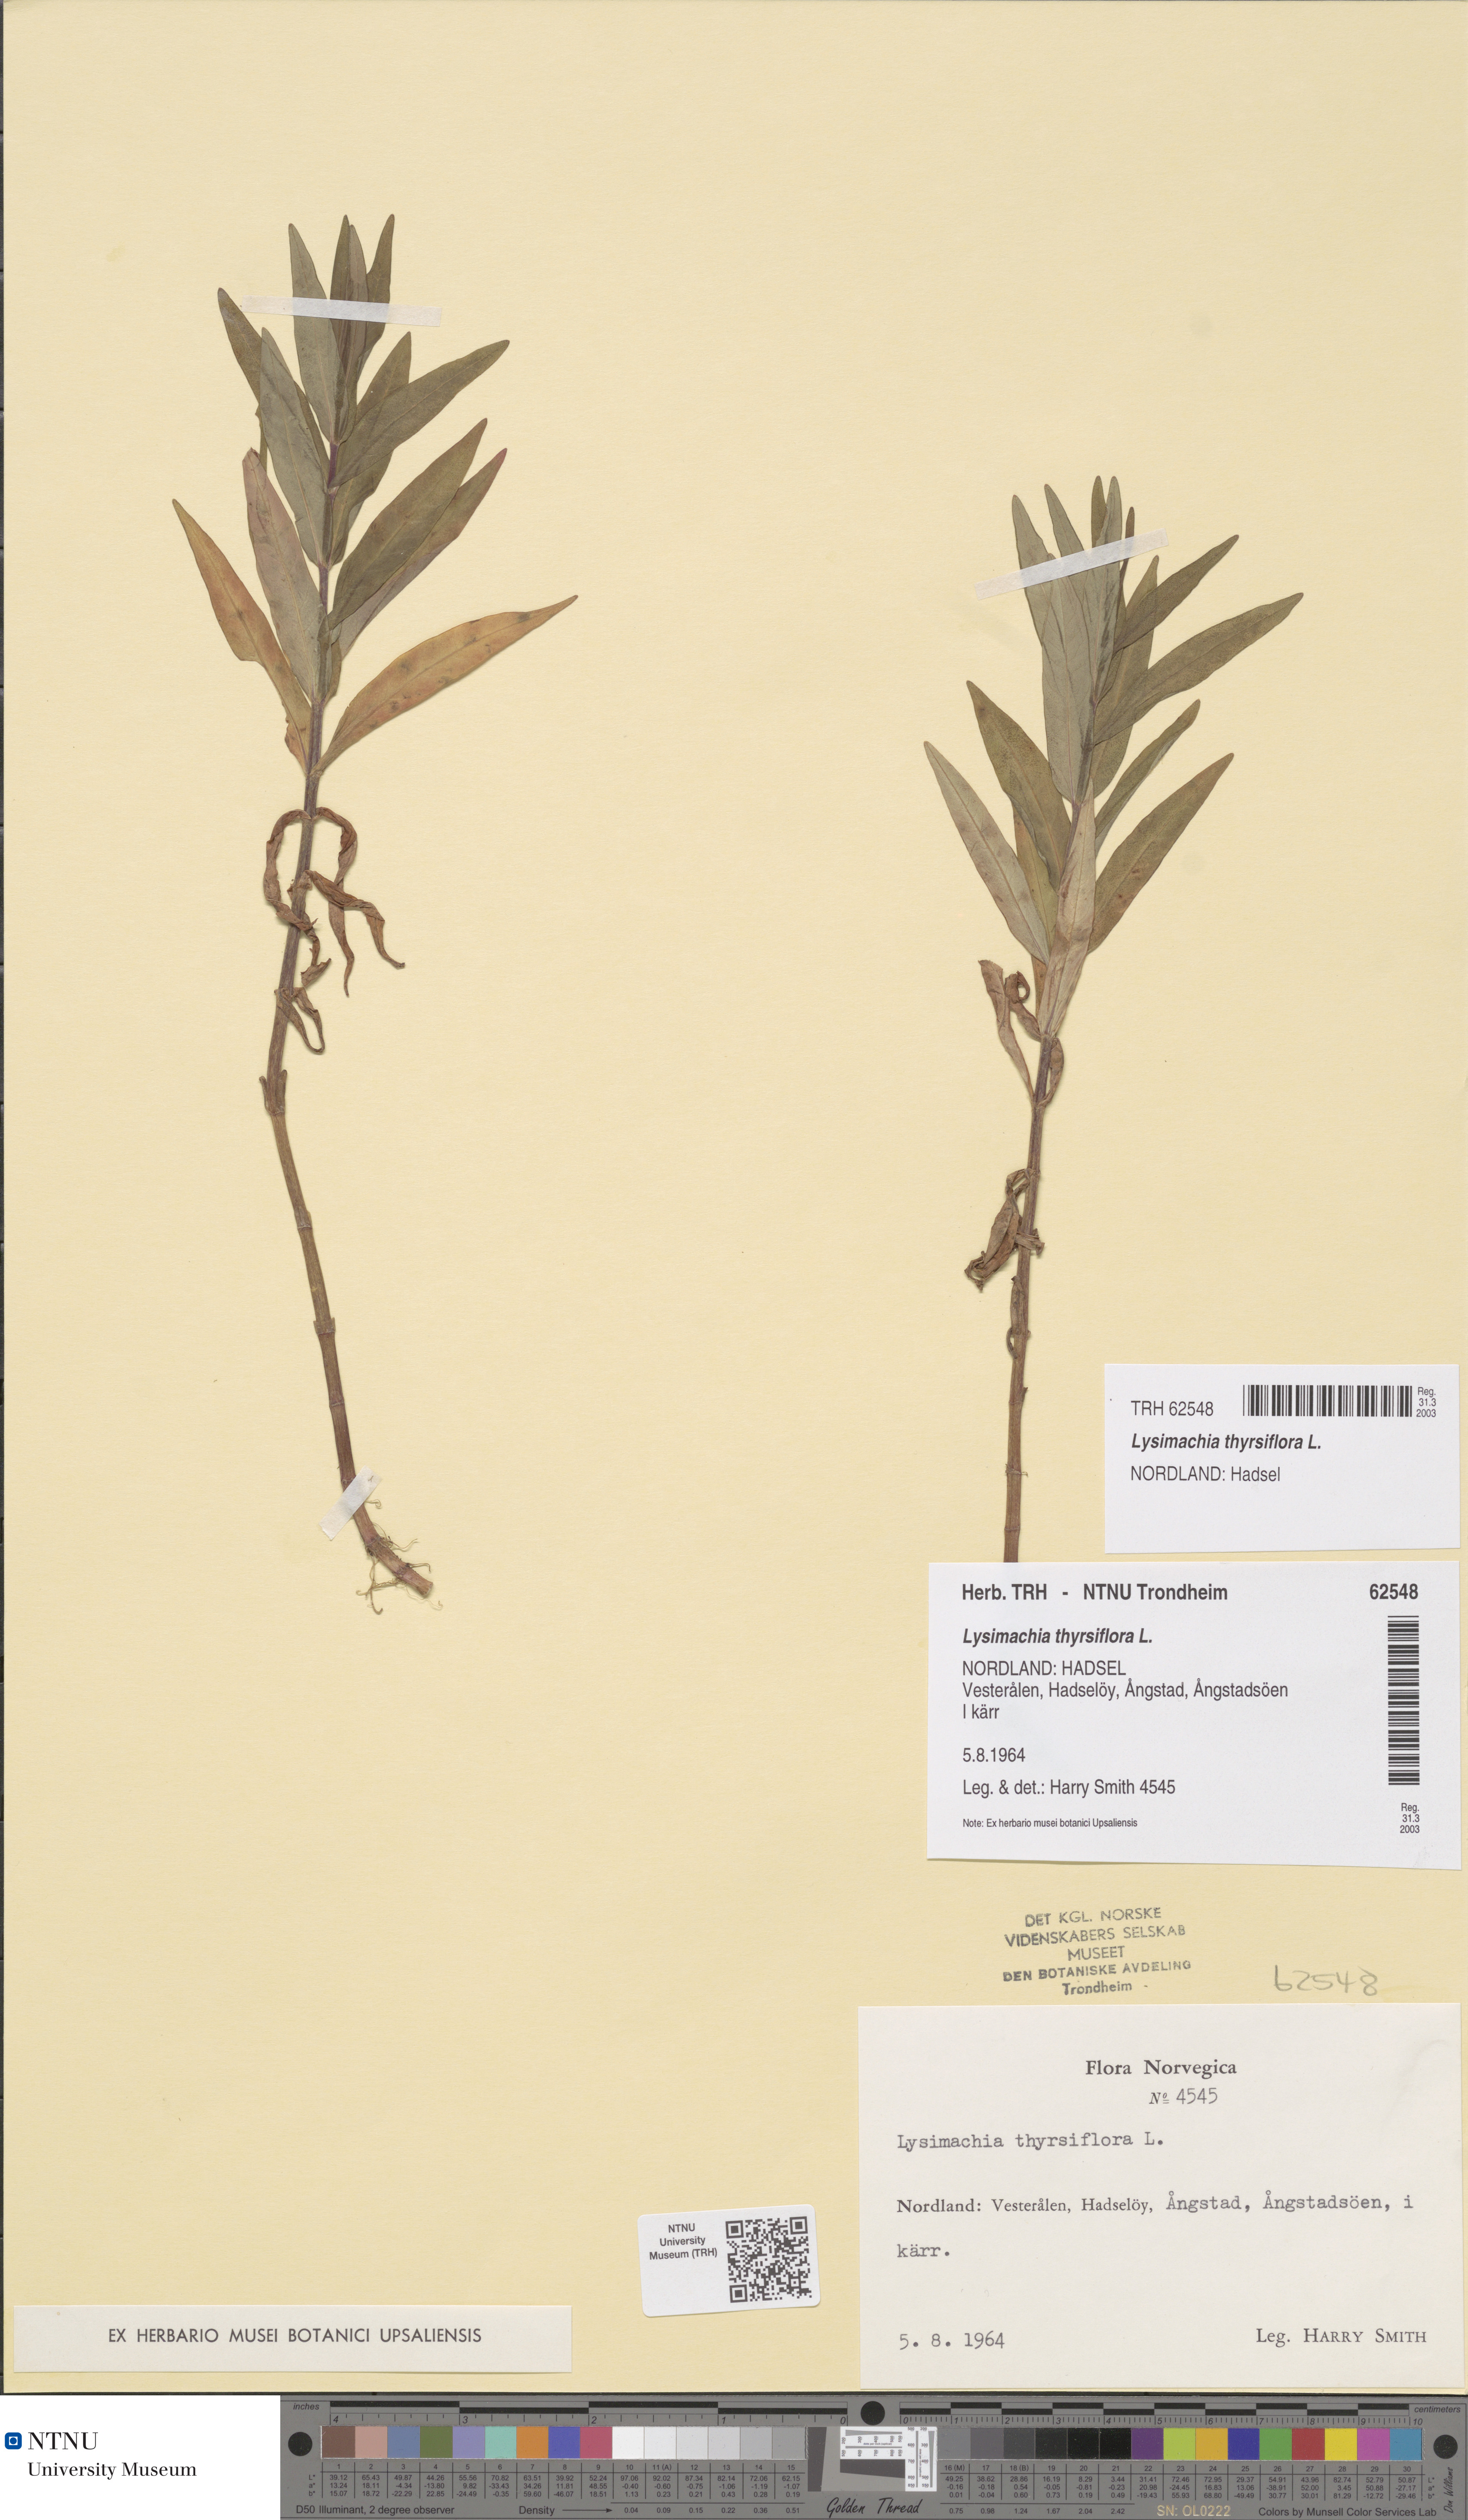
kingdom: Plantae
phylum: Tracheophyta
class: Magnoliopsida
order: Ericales
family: Primulaceae
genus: Lysimachia
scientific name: Lysimachia thyrsiflora
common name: Tufted loosestrife
